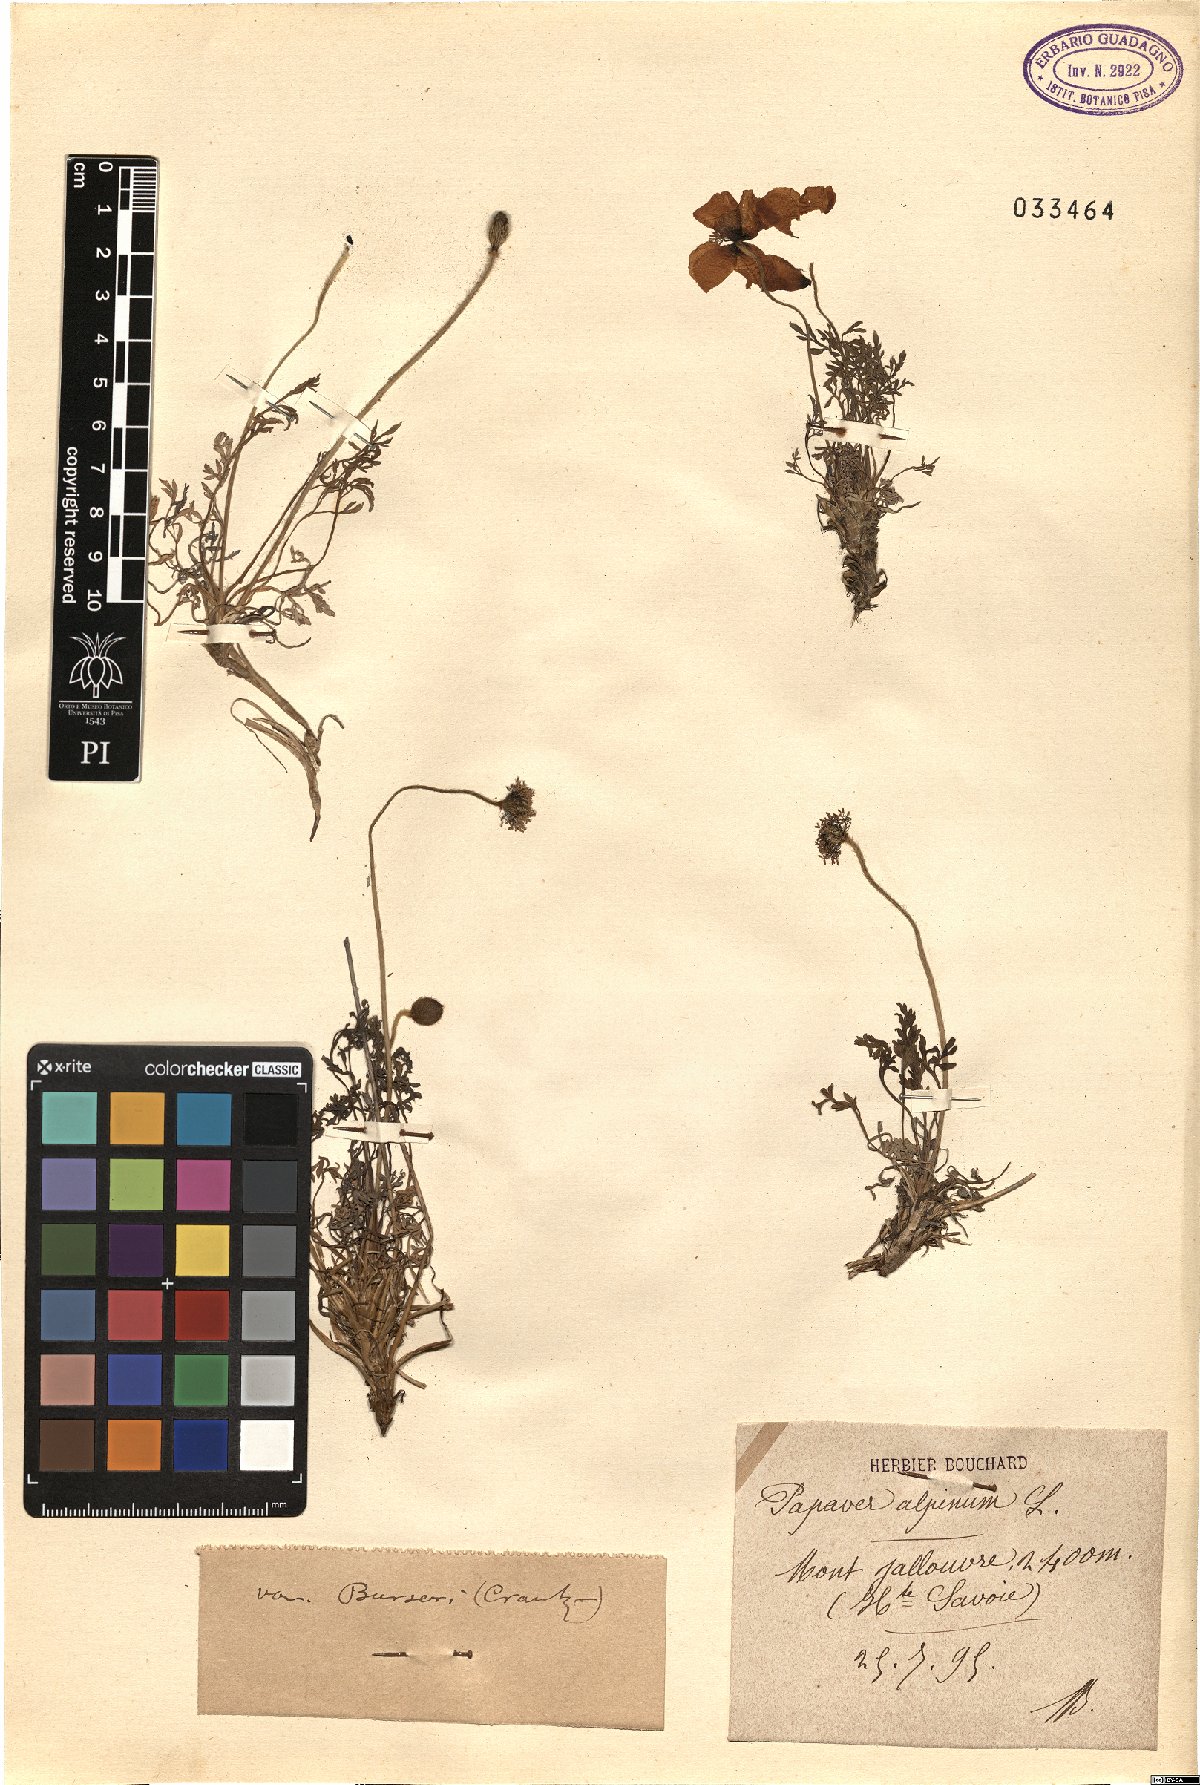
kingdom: Plantae
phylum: Tracheophyta
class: Magnoliopsida
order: Ranunculales
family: Papaveraceae
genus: Papaver
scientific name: Papaver alpinum
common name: Austrian poppy
